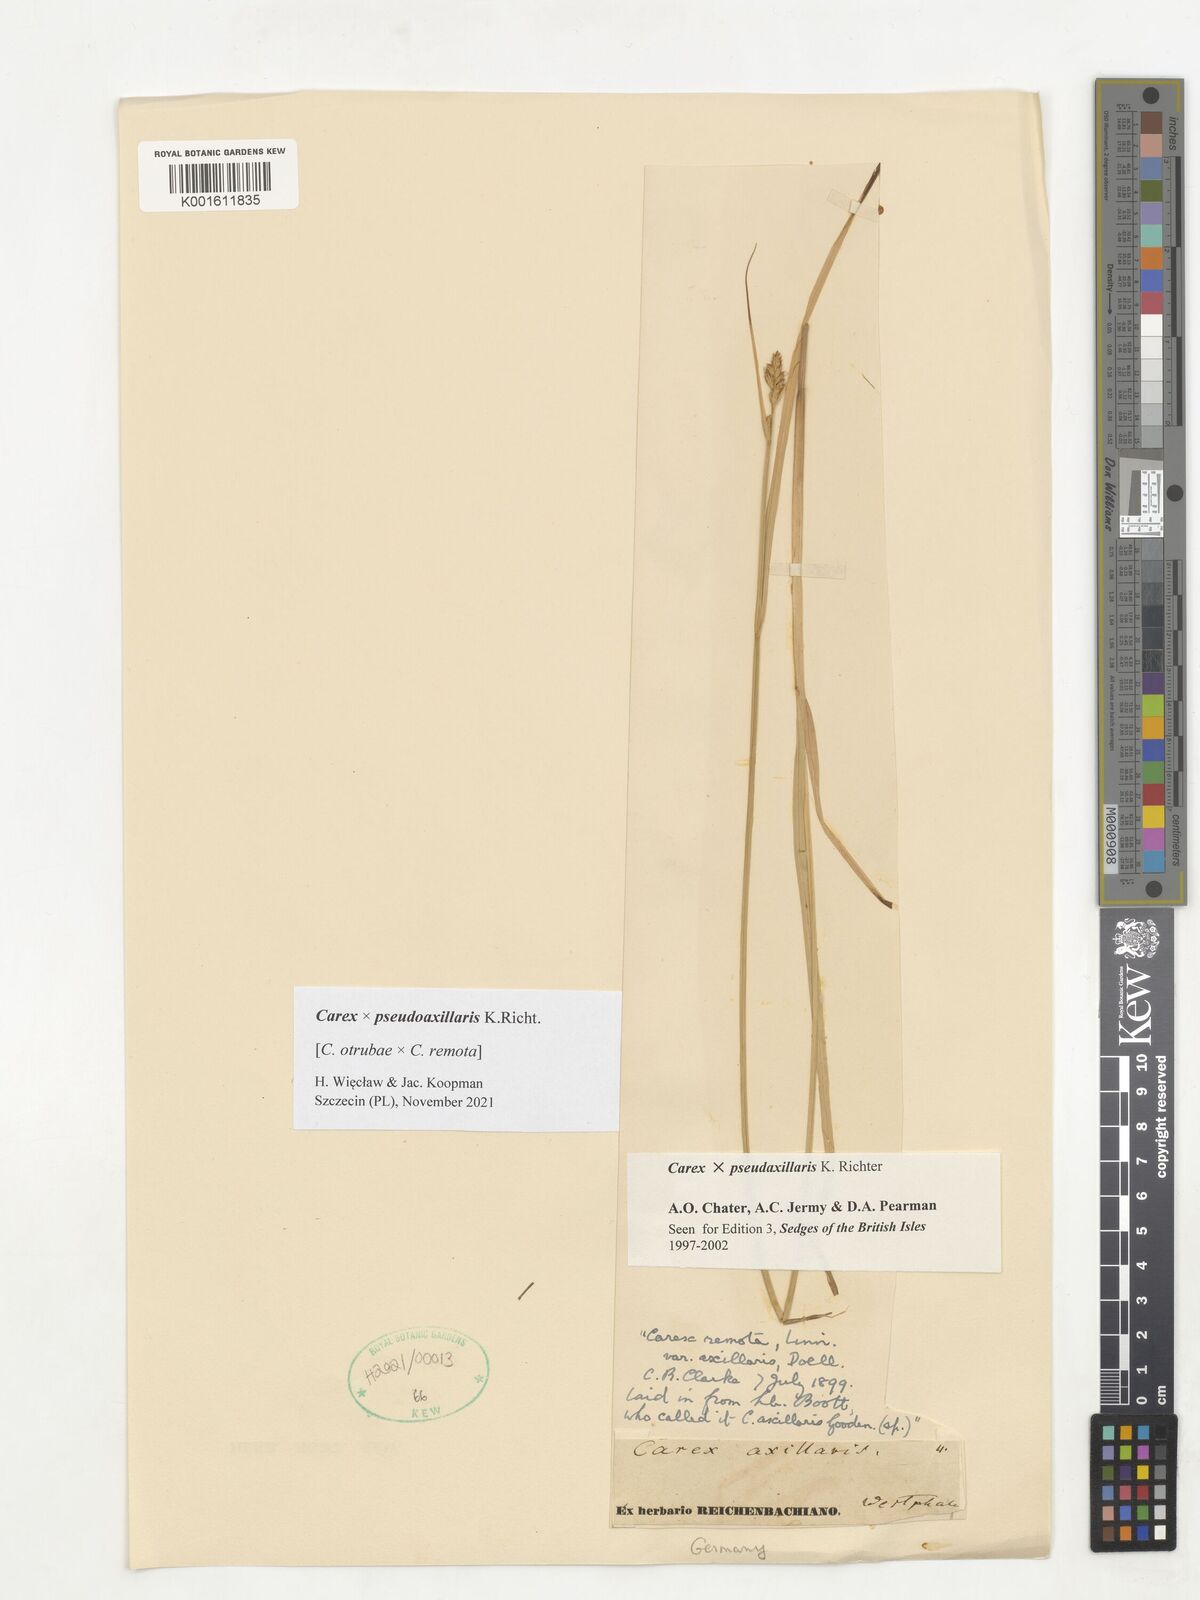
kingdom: Plantae
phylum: Tracheophyta
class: Liliopsida
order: Poales
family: Cyperaceae
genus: Carex
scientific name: Carex pseudoaxillaris
